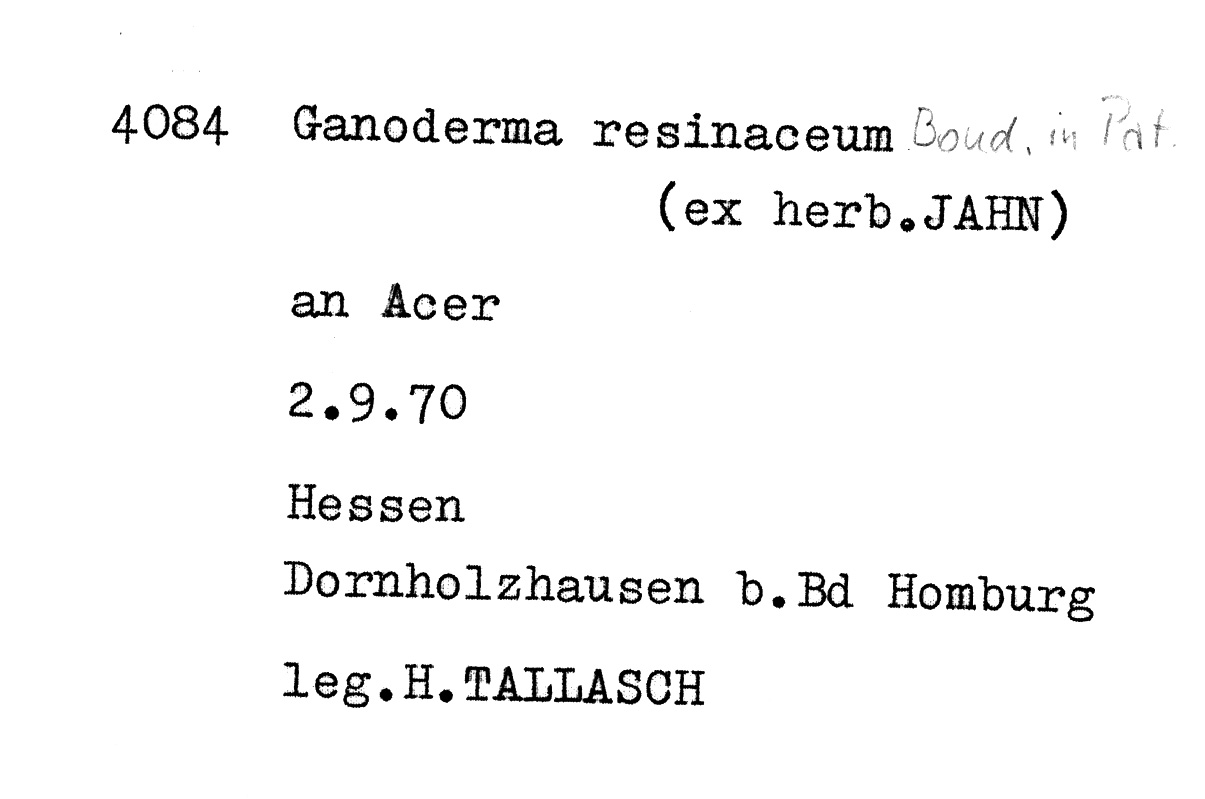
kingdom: Plantae
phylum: Tracheophyta
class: Magnoliopsida
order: Sapindales
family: Sapindaceae
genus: Acer
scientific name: Acer
